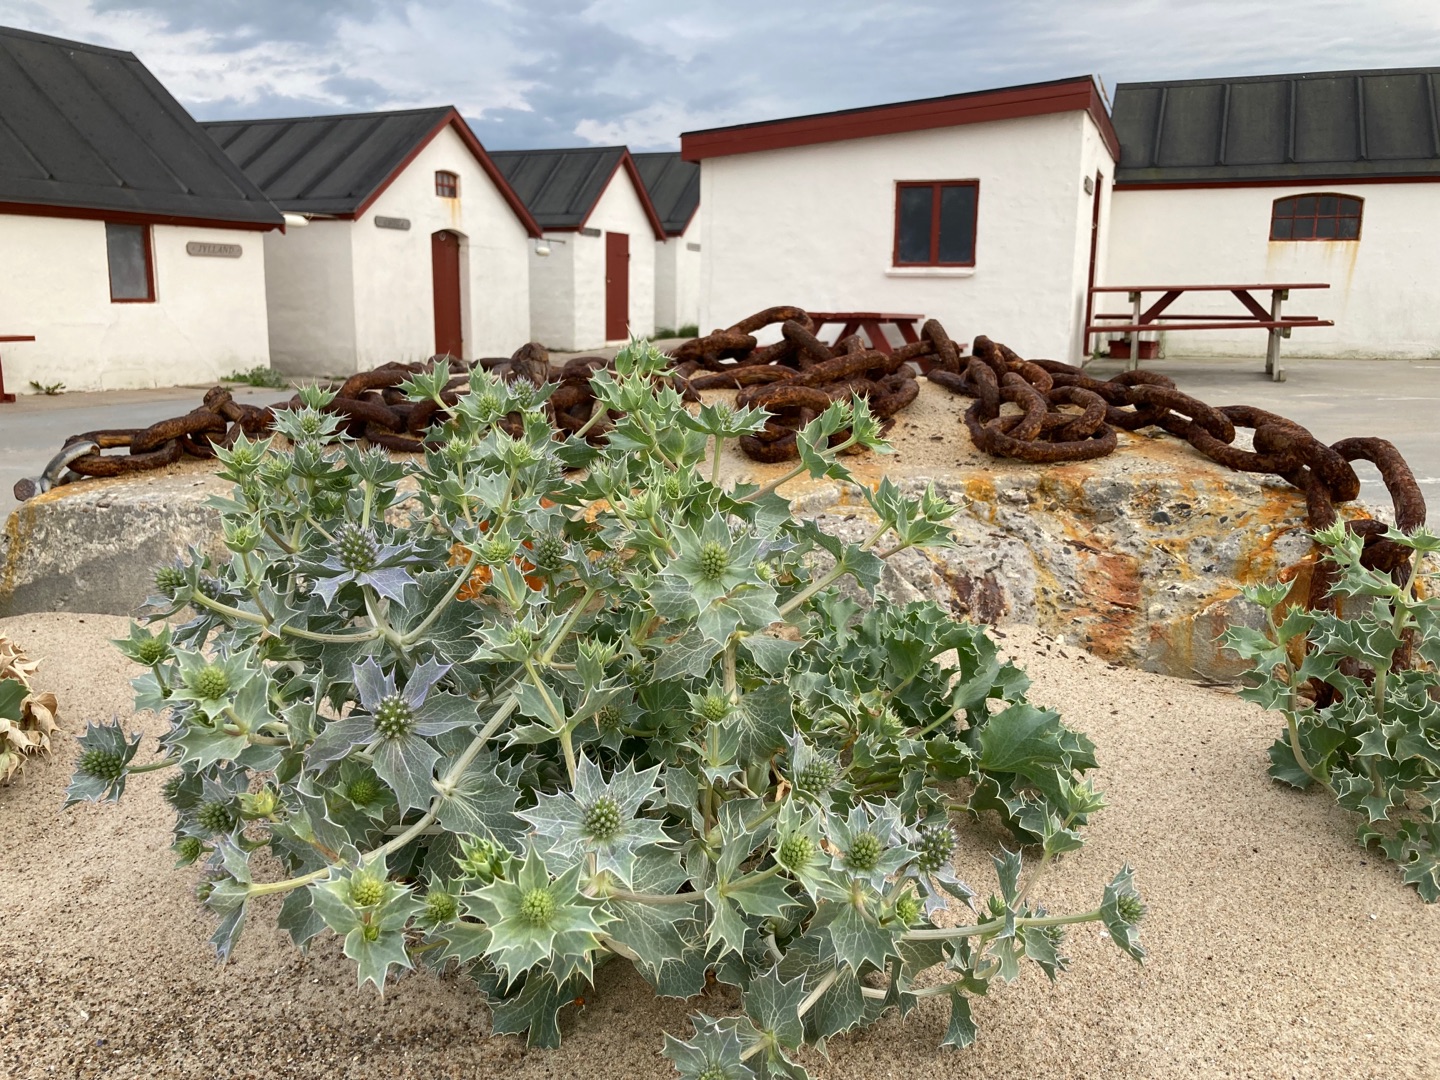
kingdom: Plantae
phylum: Tracheophyta
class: Magnoliopsida
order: Apiales
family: Apiaceae
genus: Eryngium
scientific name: Eryngium maritimum
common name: Strand-mandstro
